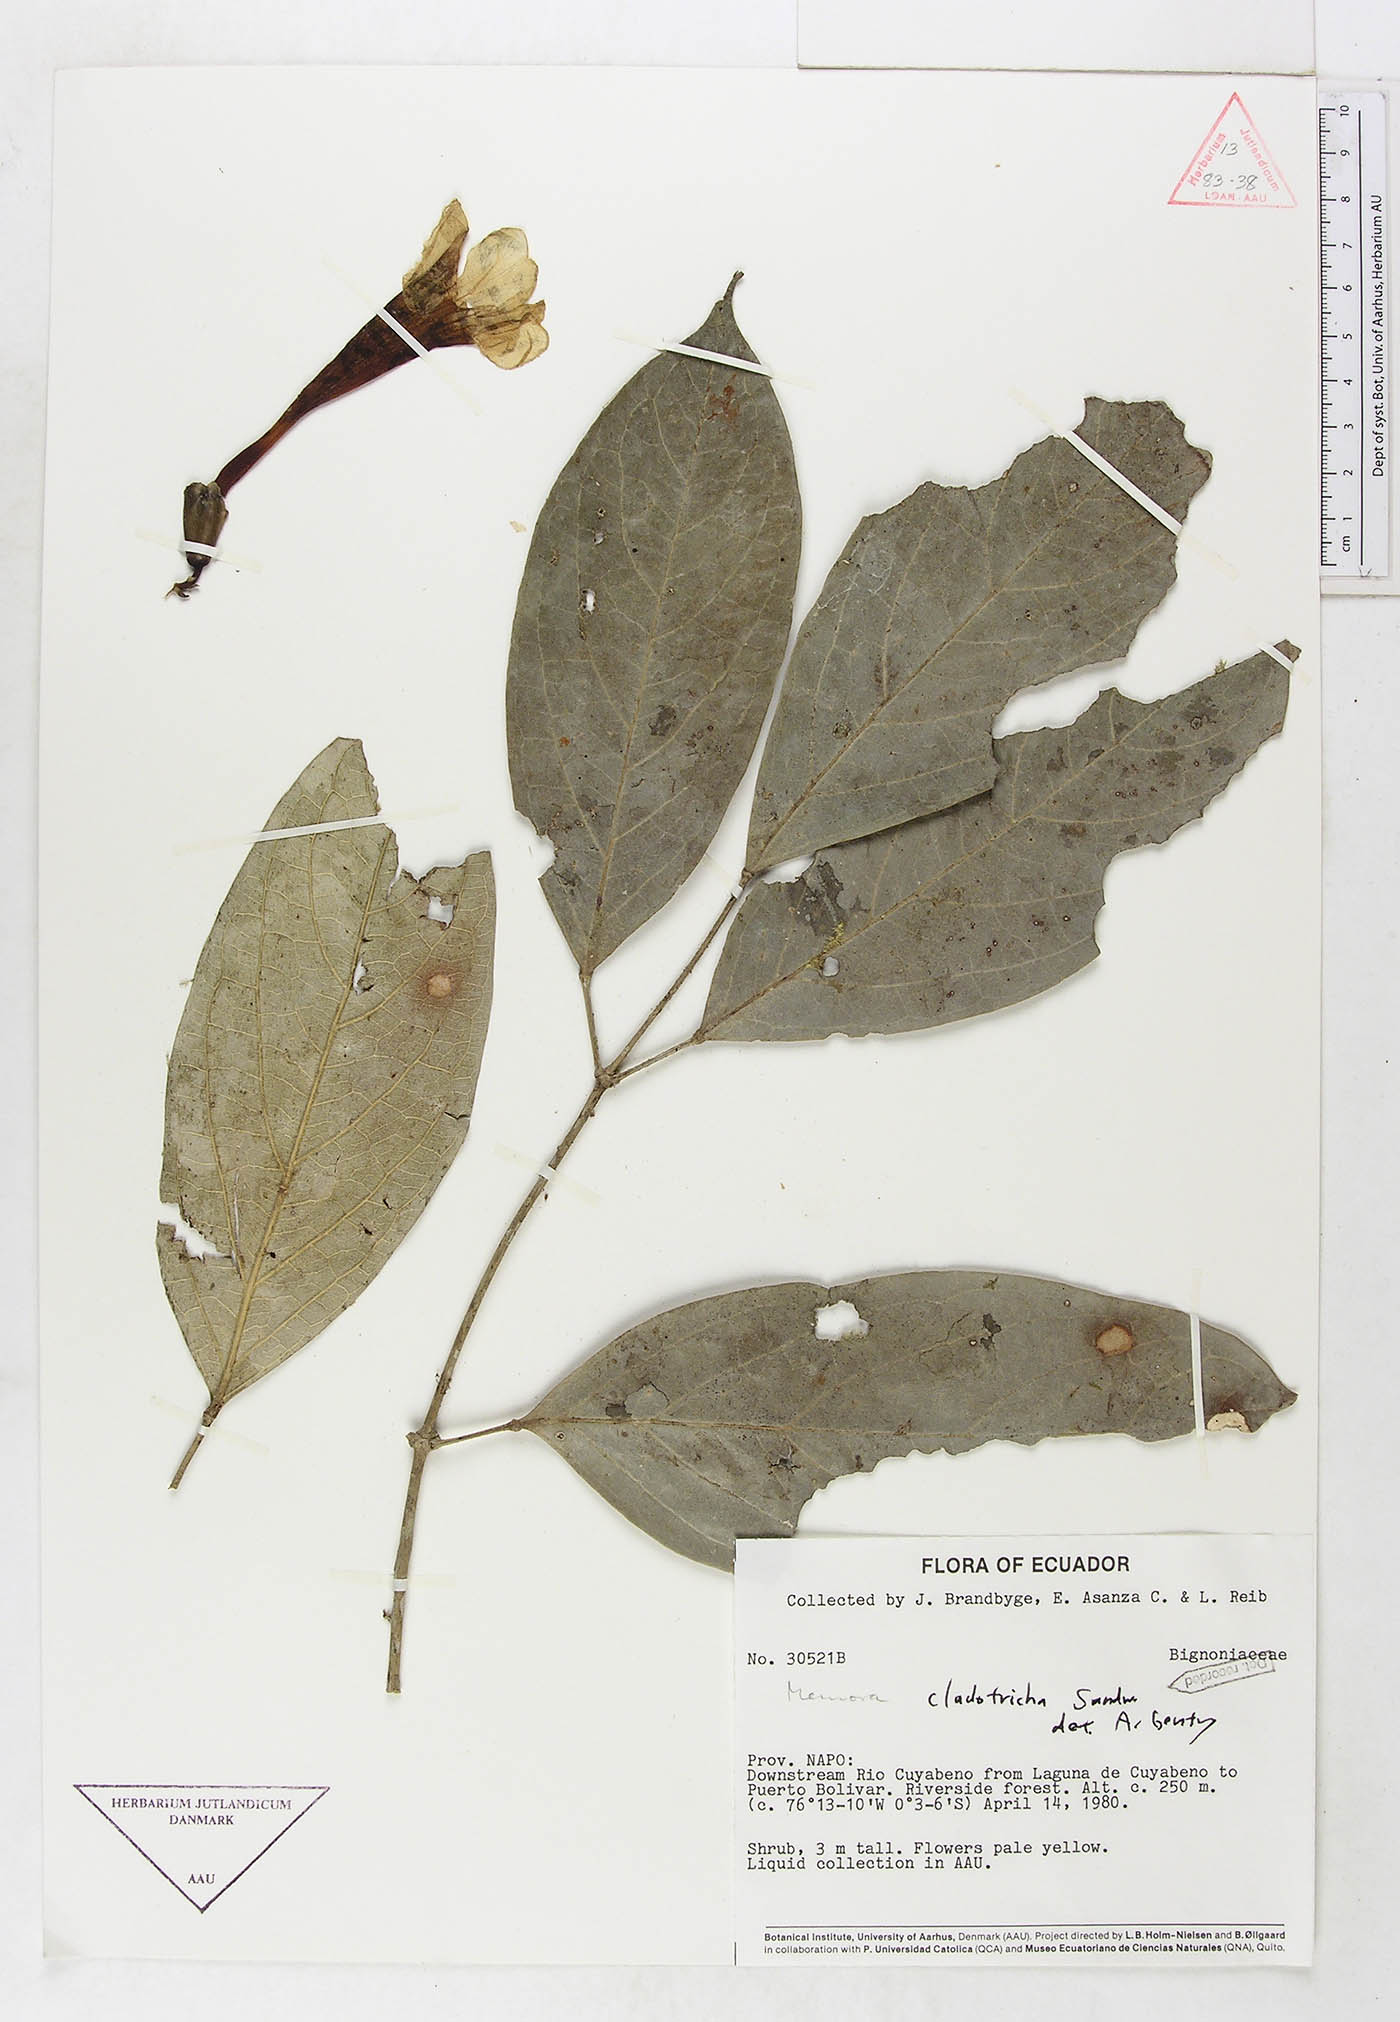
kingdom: Plantae
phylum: Tracheophyta
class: Magnoliopsida
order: Lamiales
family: Bignoniaceae
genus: Adenocalymma
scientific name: Adenocalymma cladotrichum
